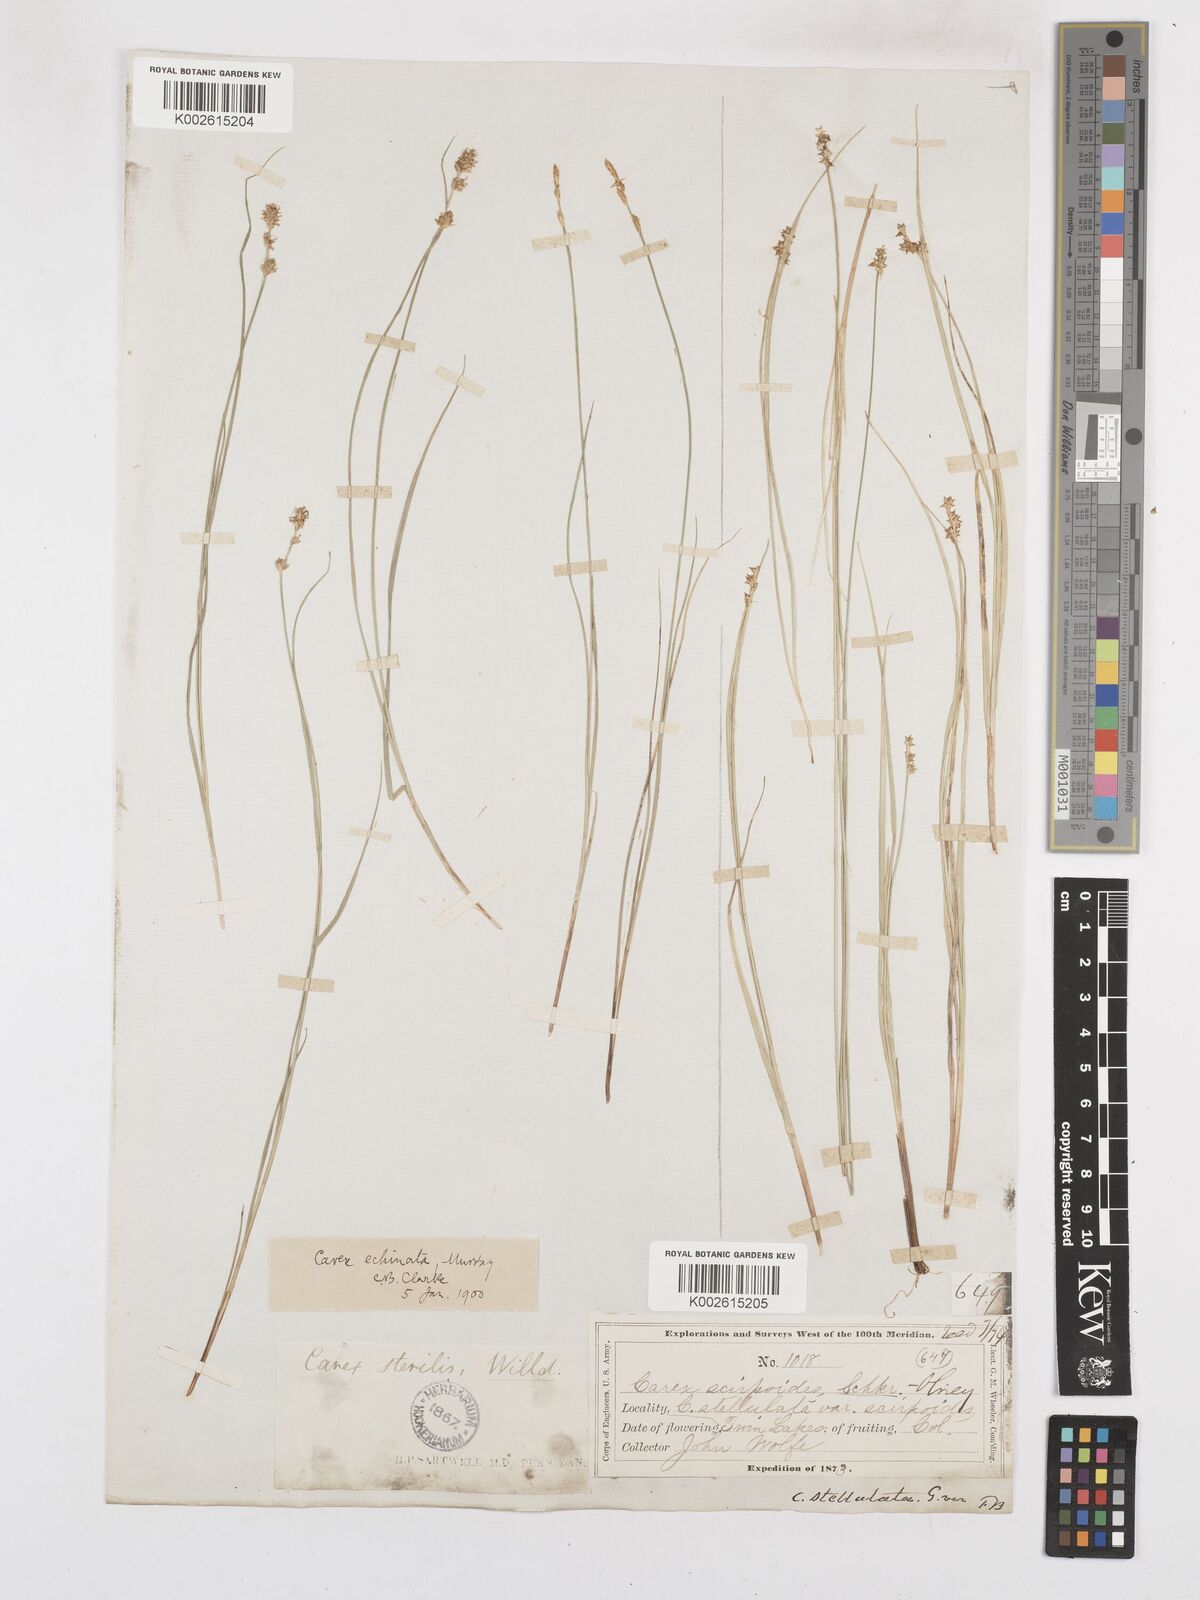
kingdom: Plantae
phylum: Tracheophyta
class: Liliopsida
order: Poales
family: Cyperaceae
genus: Carex
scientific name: Carex echinata
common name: Star sedge
